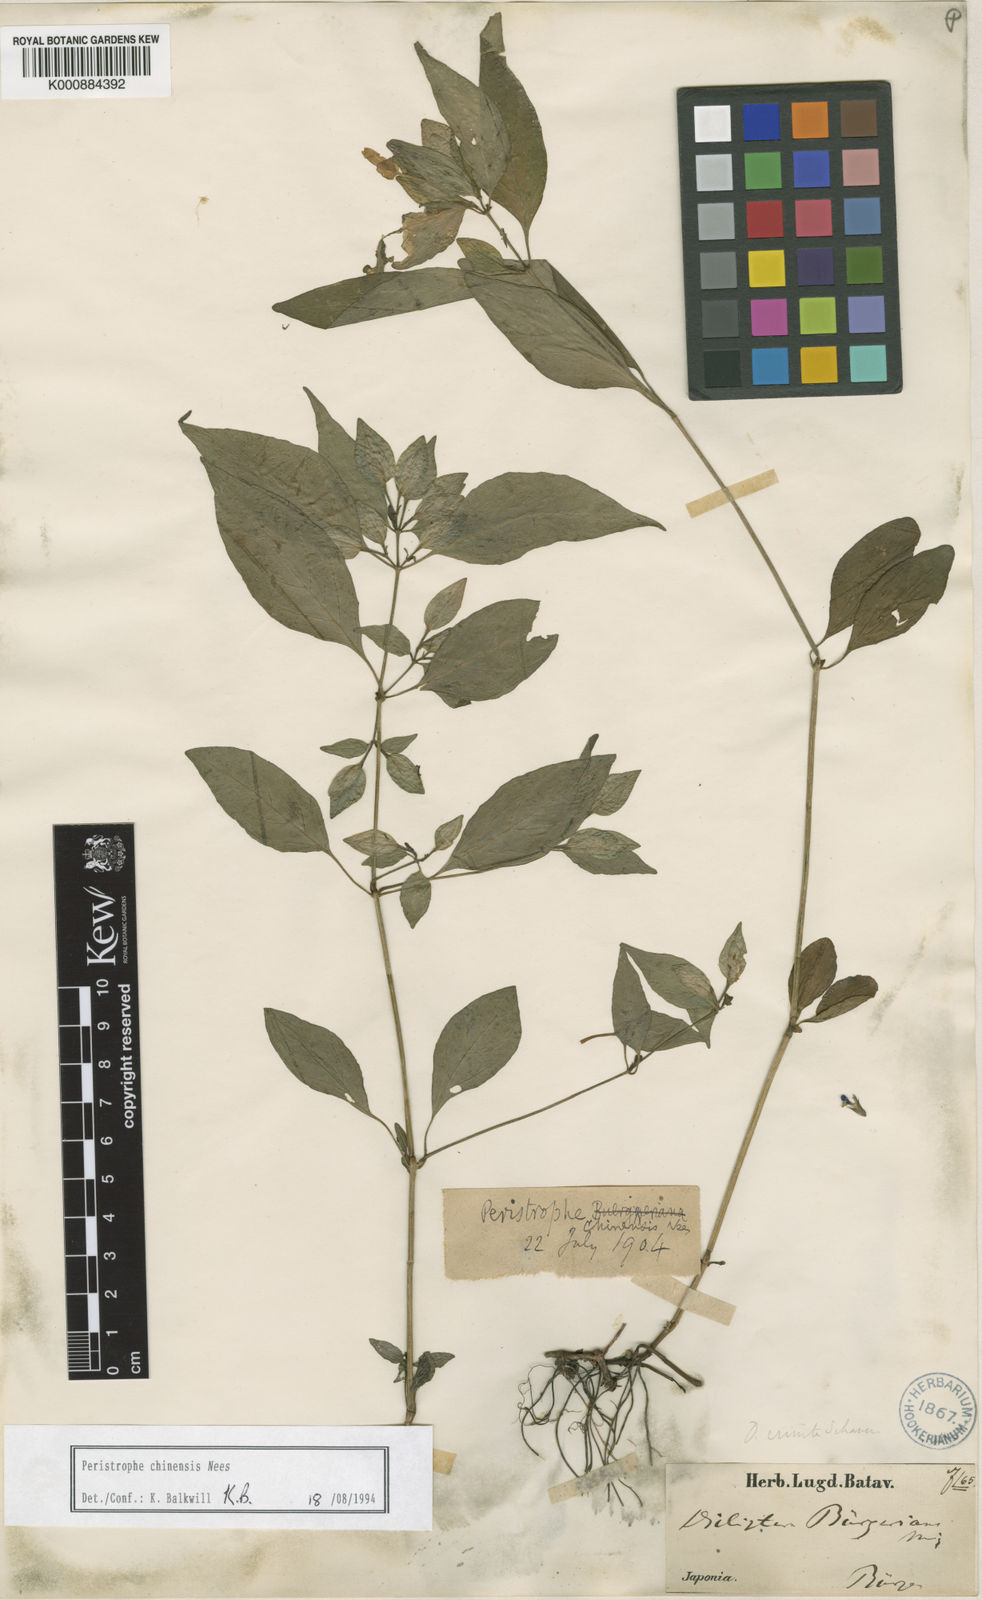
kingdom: Plantae
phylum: Tracheophyta
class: Magnoliopsida
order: Lamiales
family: Acanthaceae
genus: Dicliptera
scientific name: Dicliptera japonica
